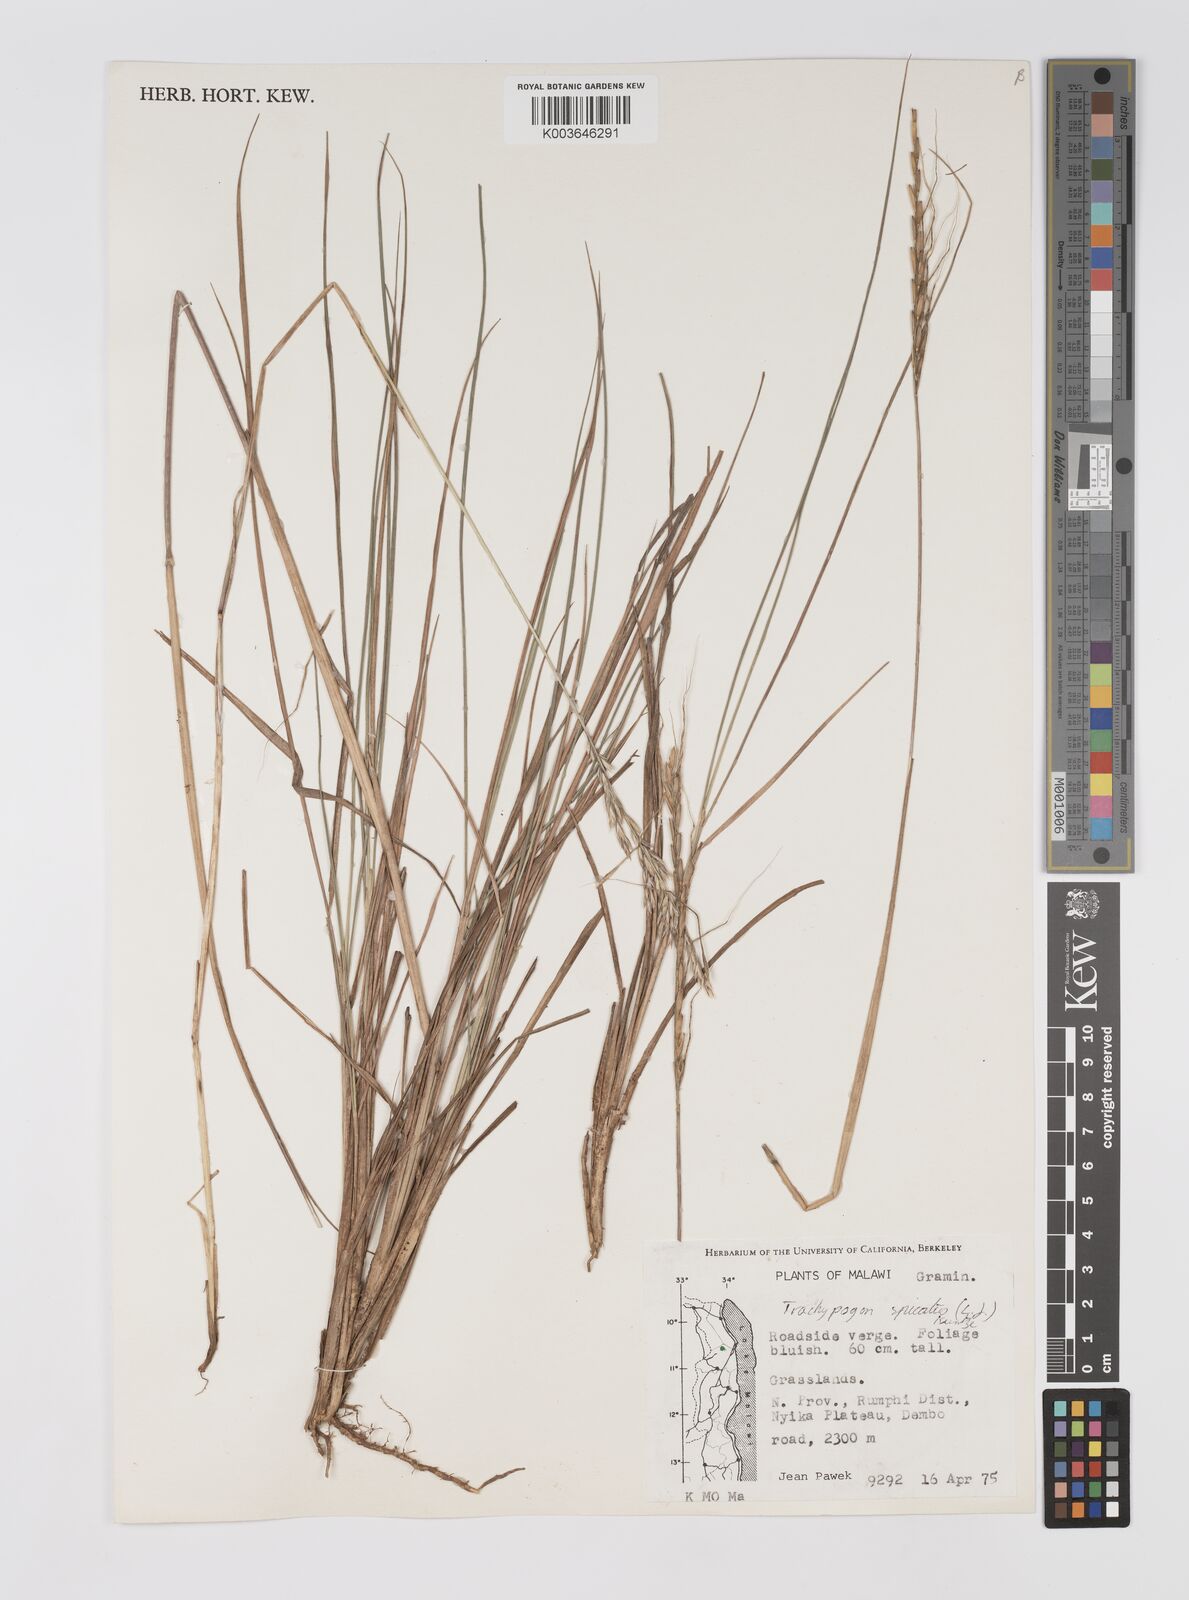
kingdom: Plantae
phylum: Tracheophyta
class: Liliopsida
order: Poales
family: Poaceae
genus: Trachypogon
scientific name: Trachypogon spicatus
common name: Crinkle-awn
